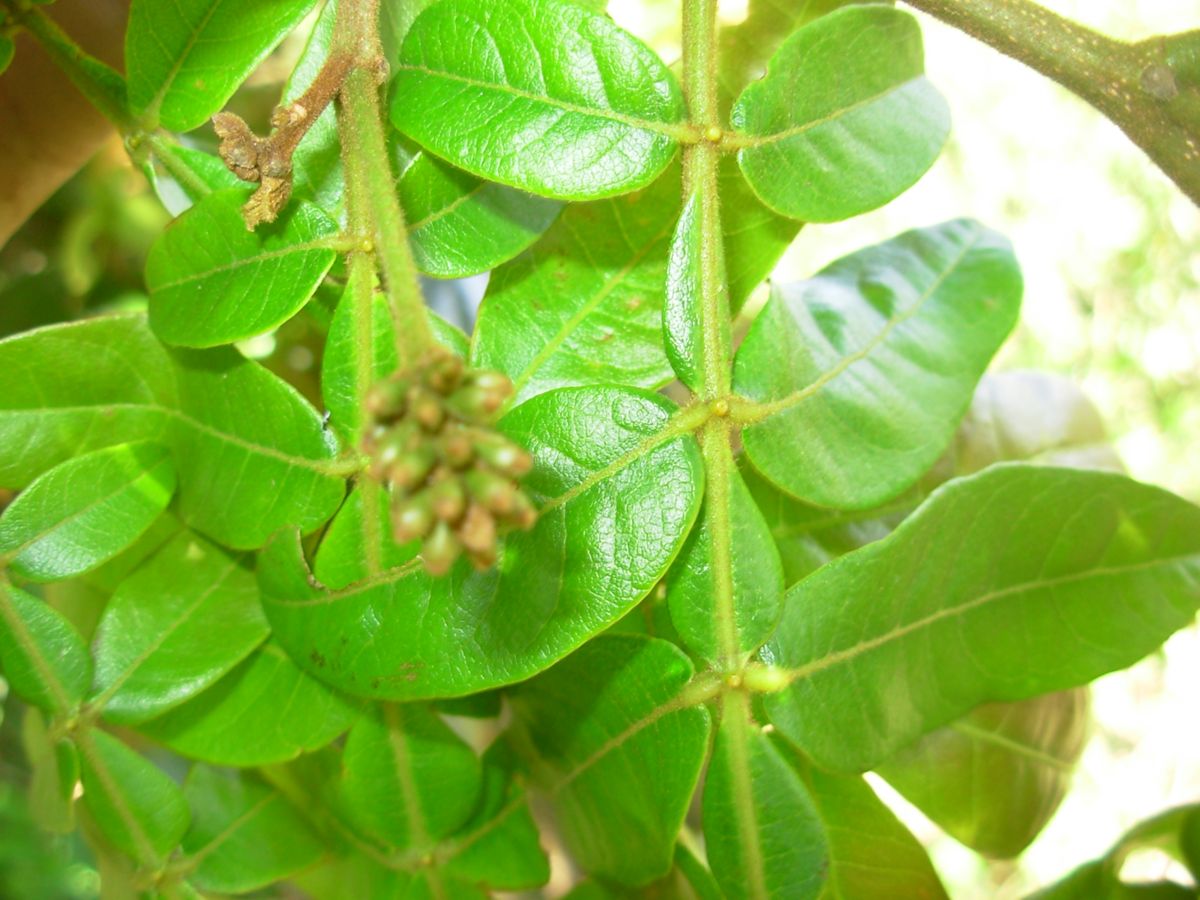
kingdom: Plantae
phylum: Tracheophyta
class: Magnoliopsida
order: Fabales
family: Fabaceae
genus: Inga
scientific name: Inga flexuosa
